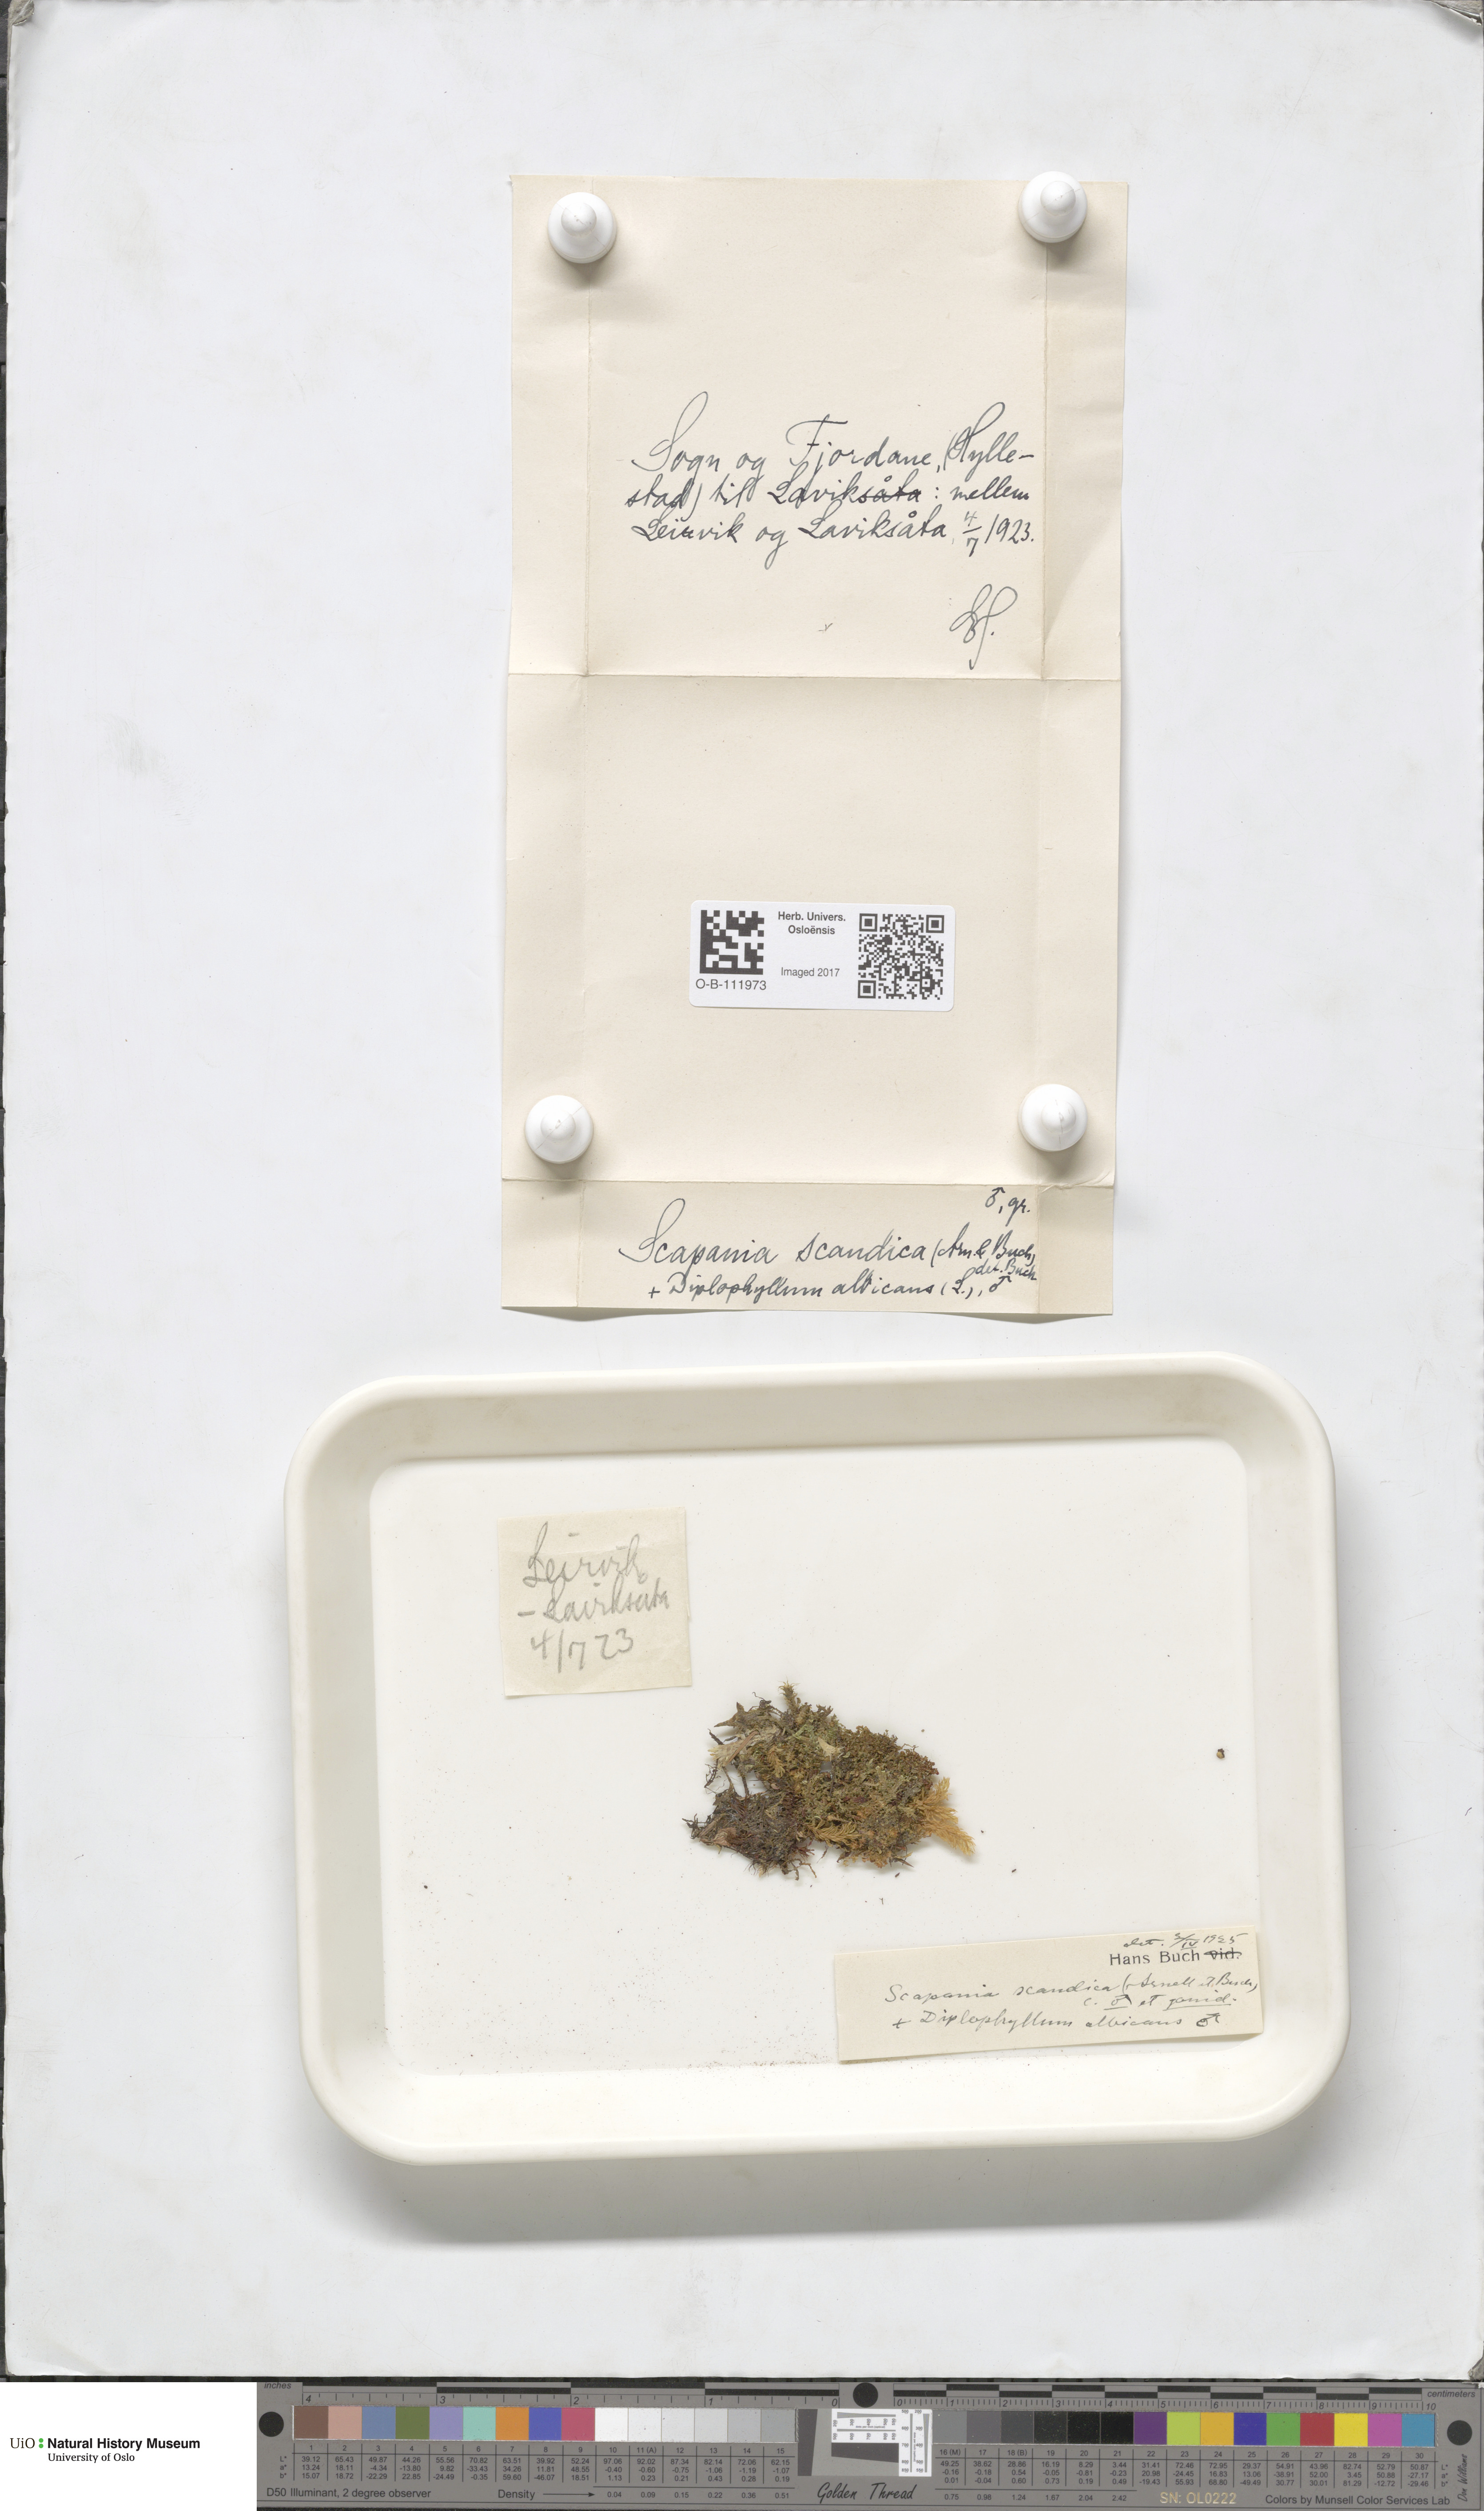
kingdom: Plantae
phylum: Marchantiophyta
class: Jungermanniopsida
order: Jungermanniales
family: Scapaniaceae
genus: Scapania
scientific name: Scapania scandica
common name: Norwegian earwort
